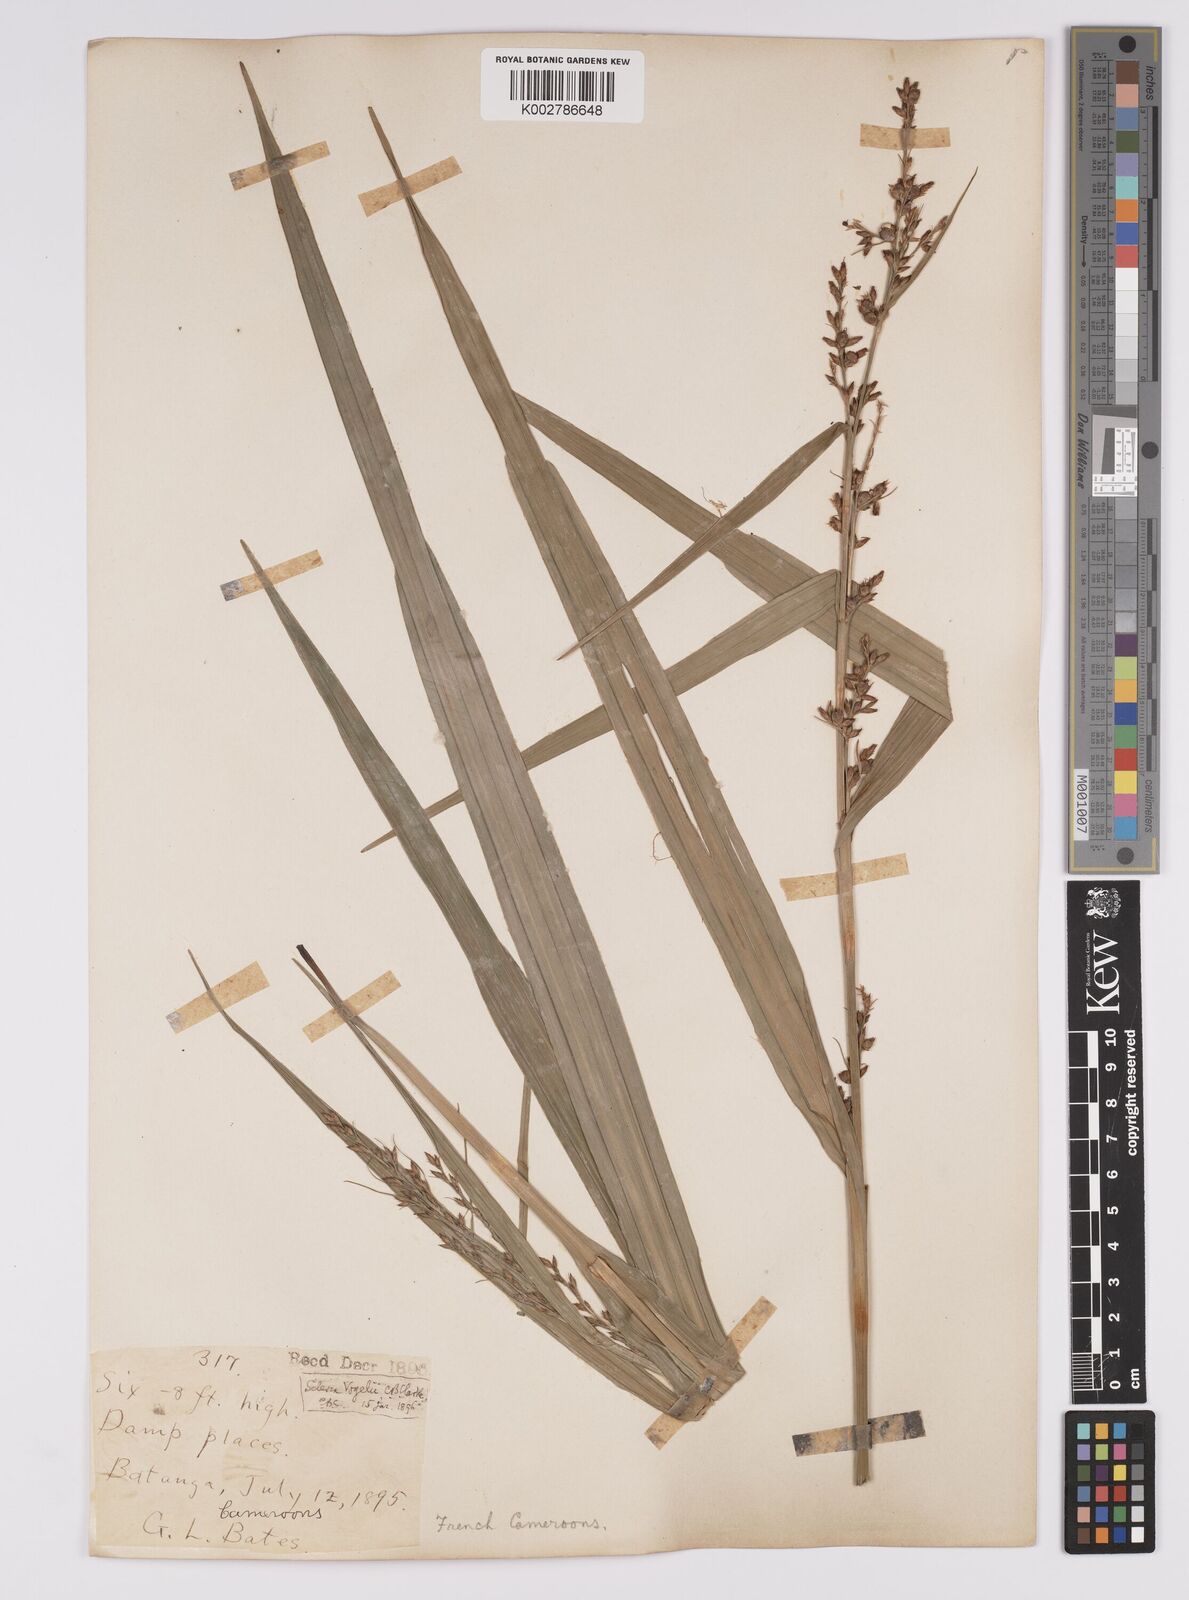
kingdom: Plantae
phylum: Tracheophyta
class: Liliopsida
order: Poales
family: Cyperaceae
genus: Scleria
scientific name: Scleria racemosa
